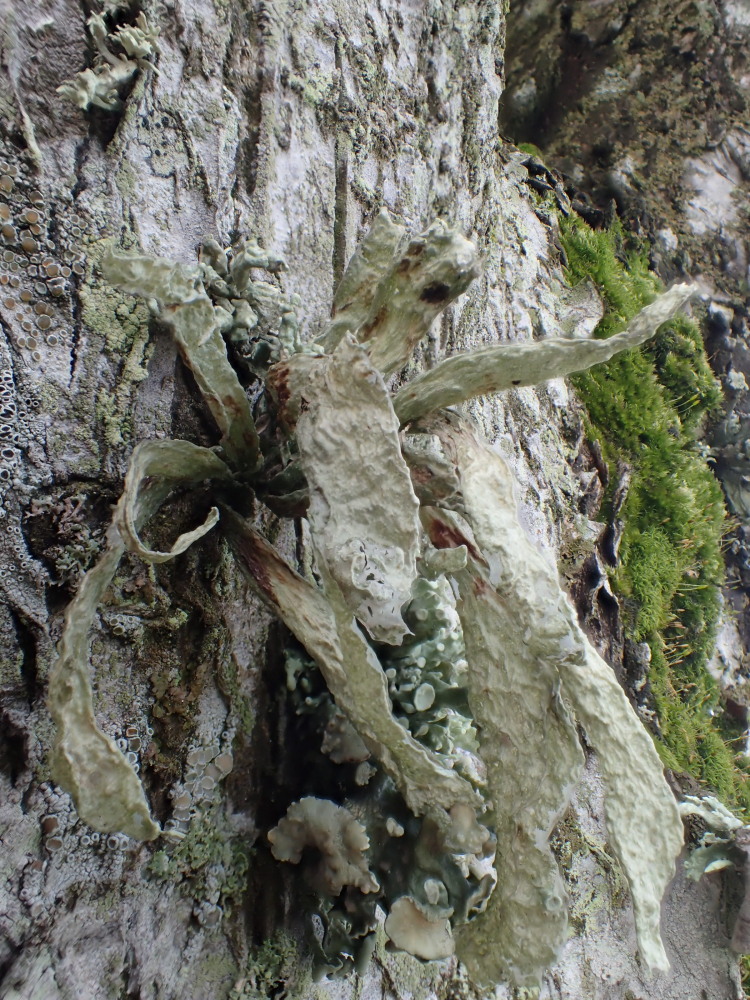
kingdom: Fungi
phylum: Ascomycota
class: Lecanoromycetes
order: Lecanorales
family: Ramalinaceae
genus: Ramalina
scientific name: Ramalina fraxinea
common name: stor grenlav
